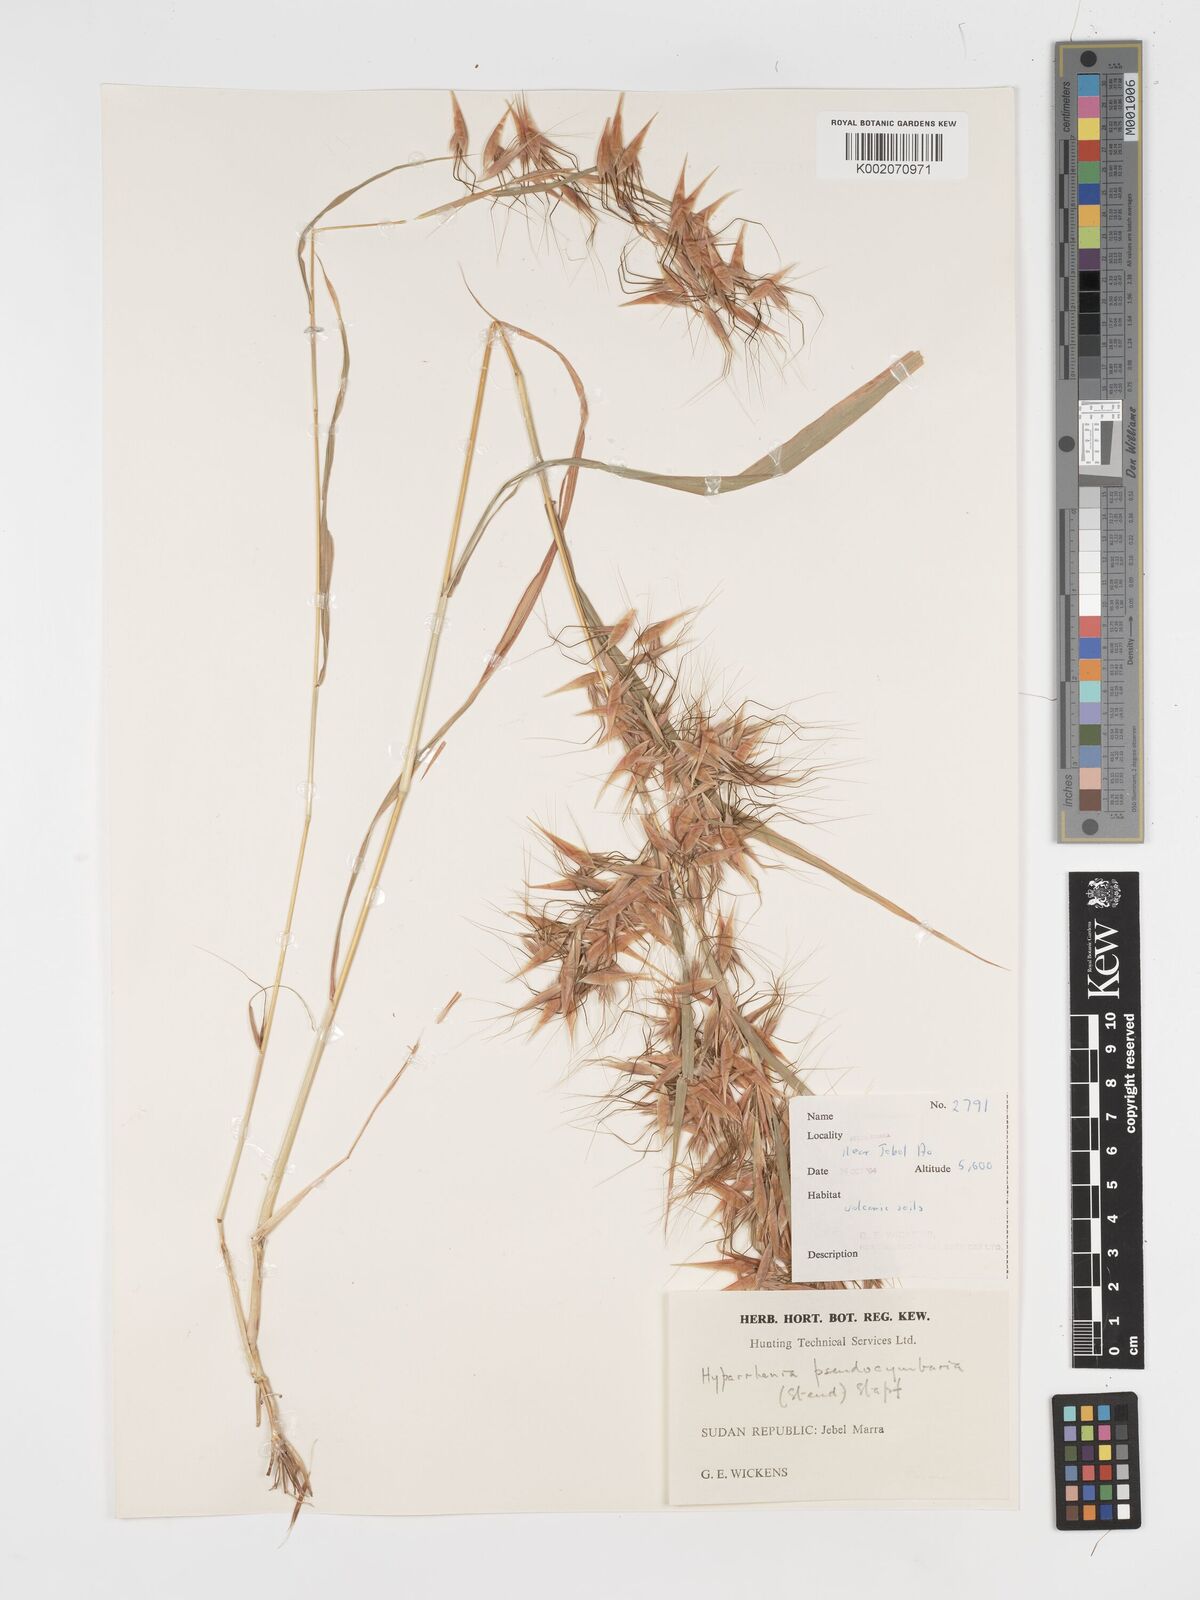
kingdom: Plantae
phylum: Tracheophyta
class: Liliopsida
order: Poales
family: Poaceae
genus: Hyparrhenia
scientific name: Hyparrhenia anthistirioides
